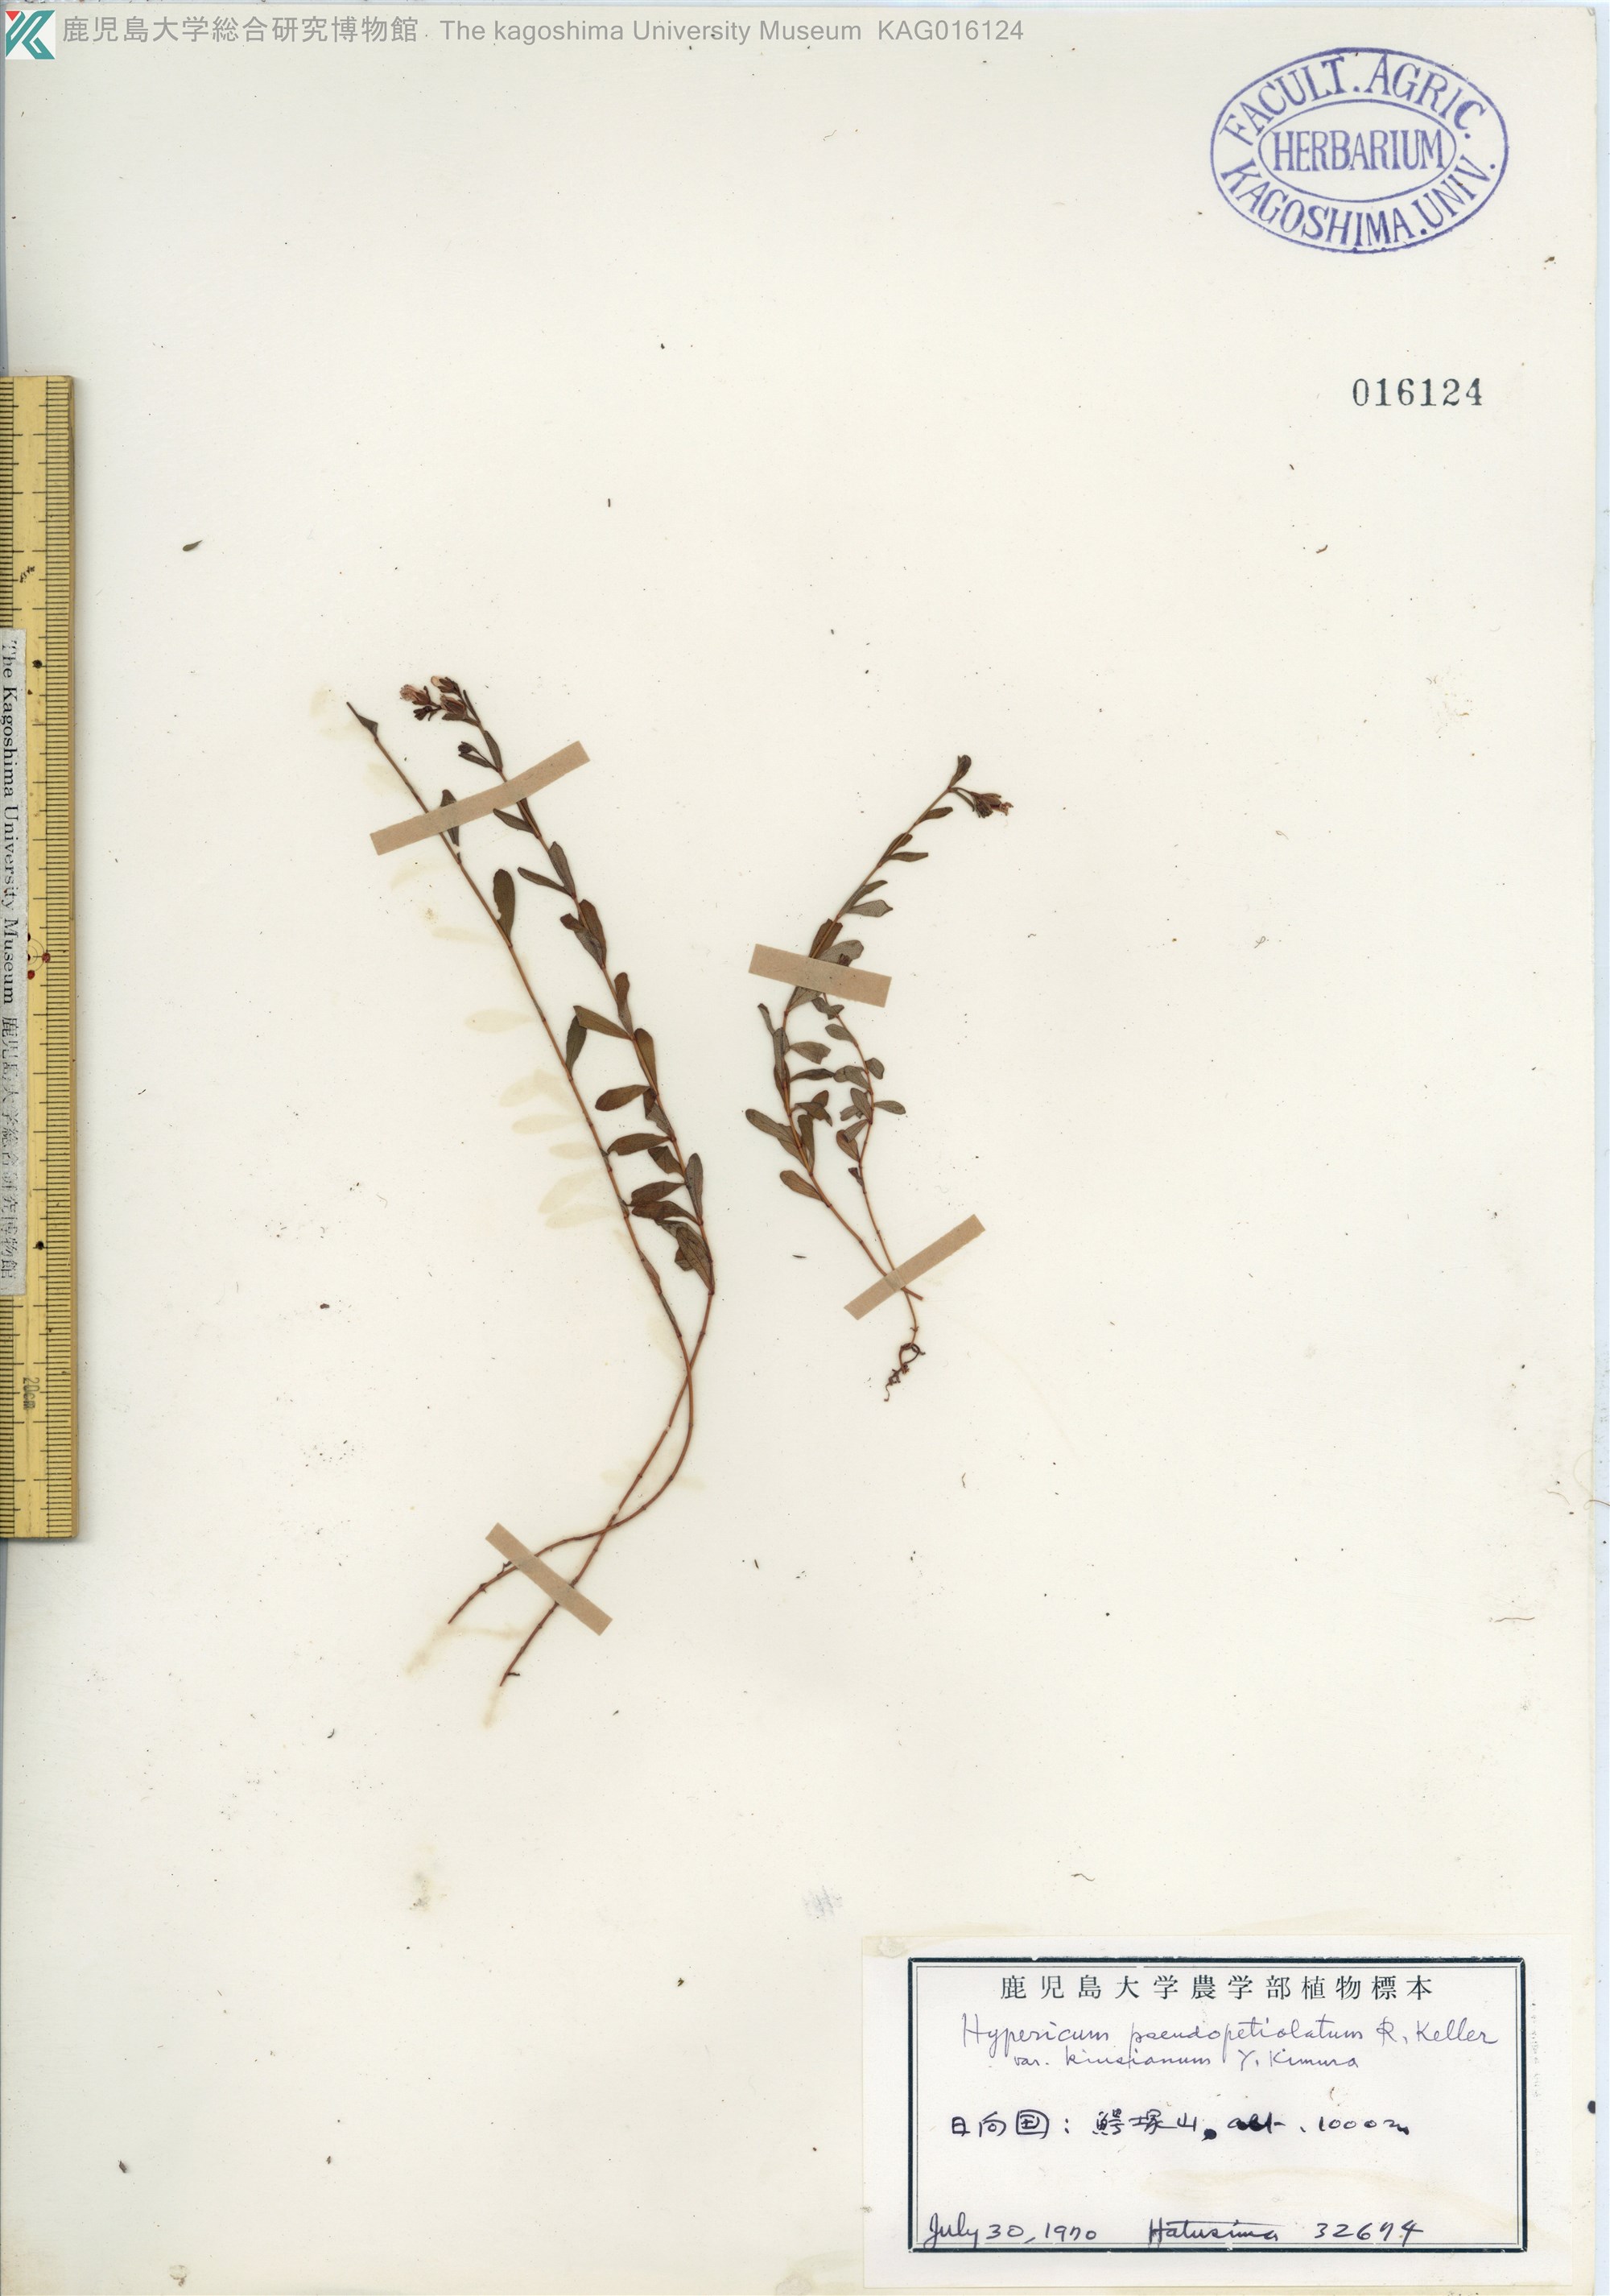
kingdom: Plantae
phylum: Tracheophyta
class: Magnoliopsida
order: Malpighiales
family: Hypericaceae
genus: Hypericum
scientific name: Hypericum pseudopetiolatum
